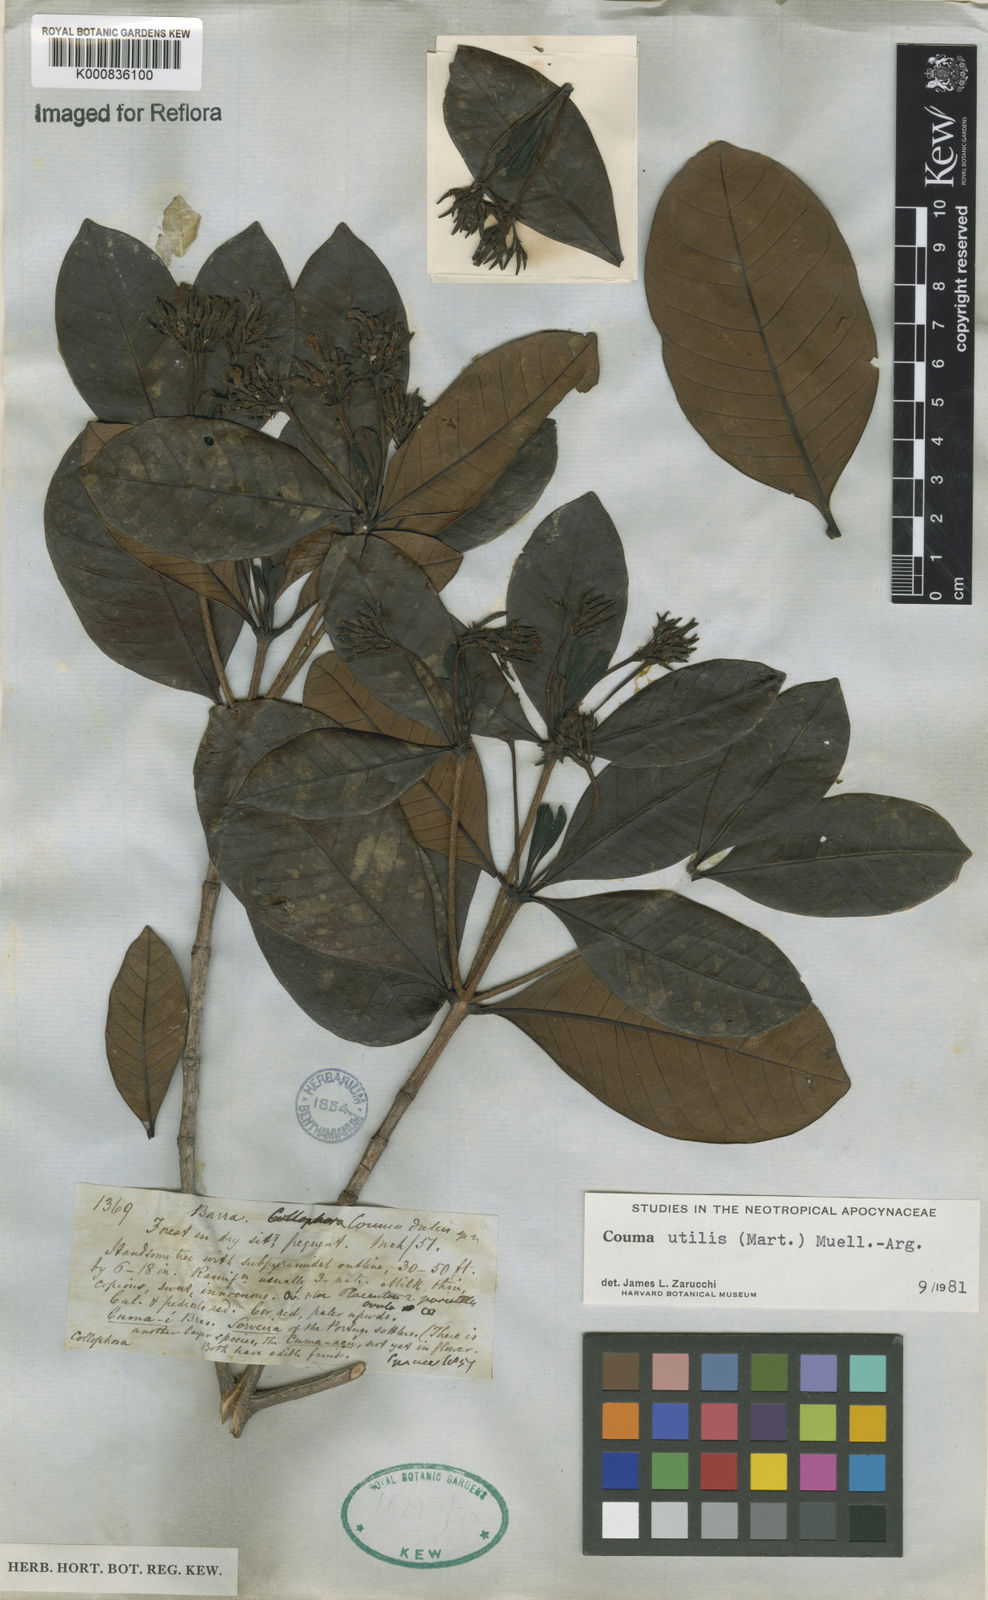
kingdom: Plantae
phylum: Tracheophyta
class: Magnoliopsida
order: Gentianales
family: Apocynaceae
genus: Couma
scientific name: Couma
